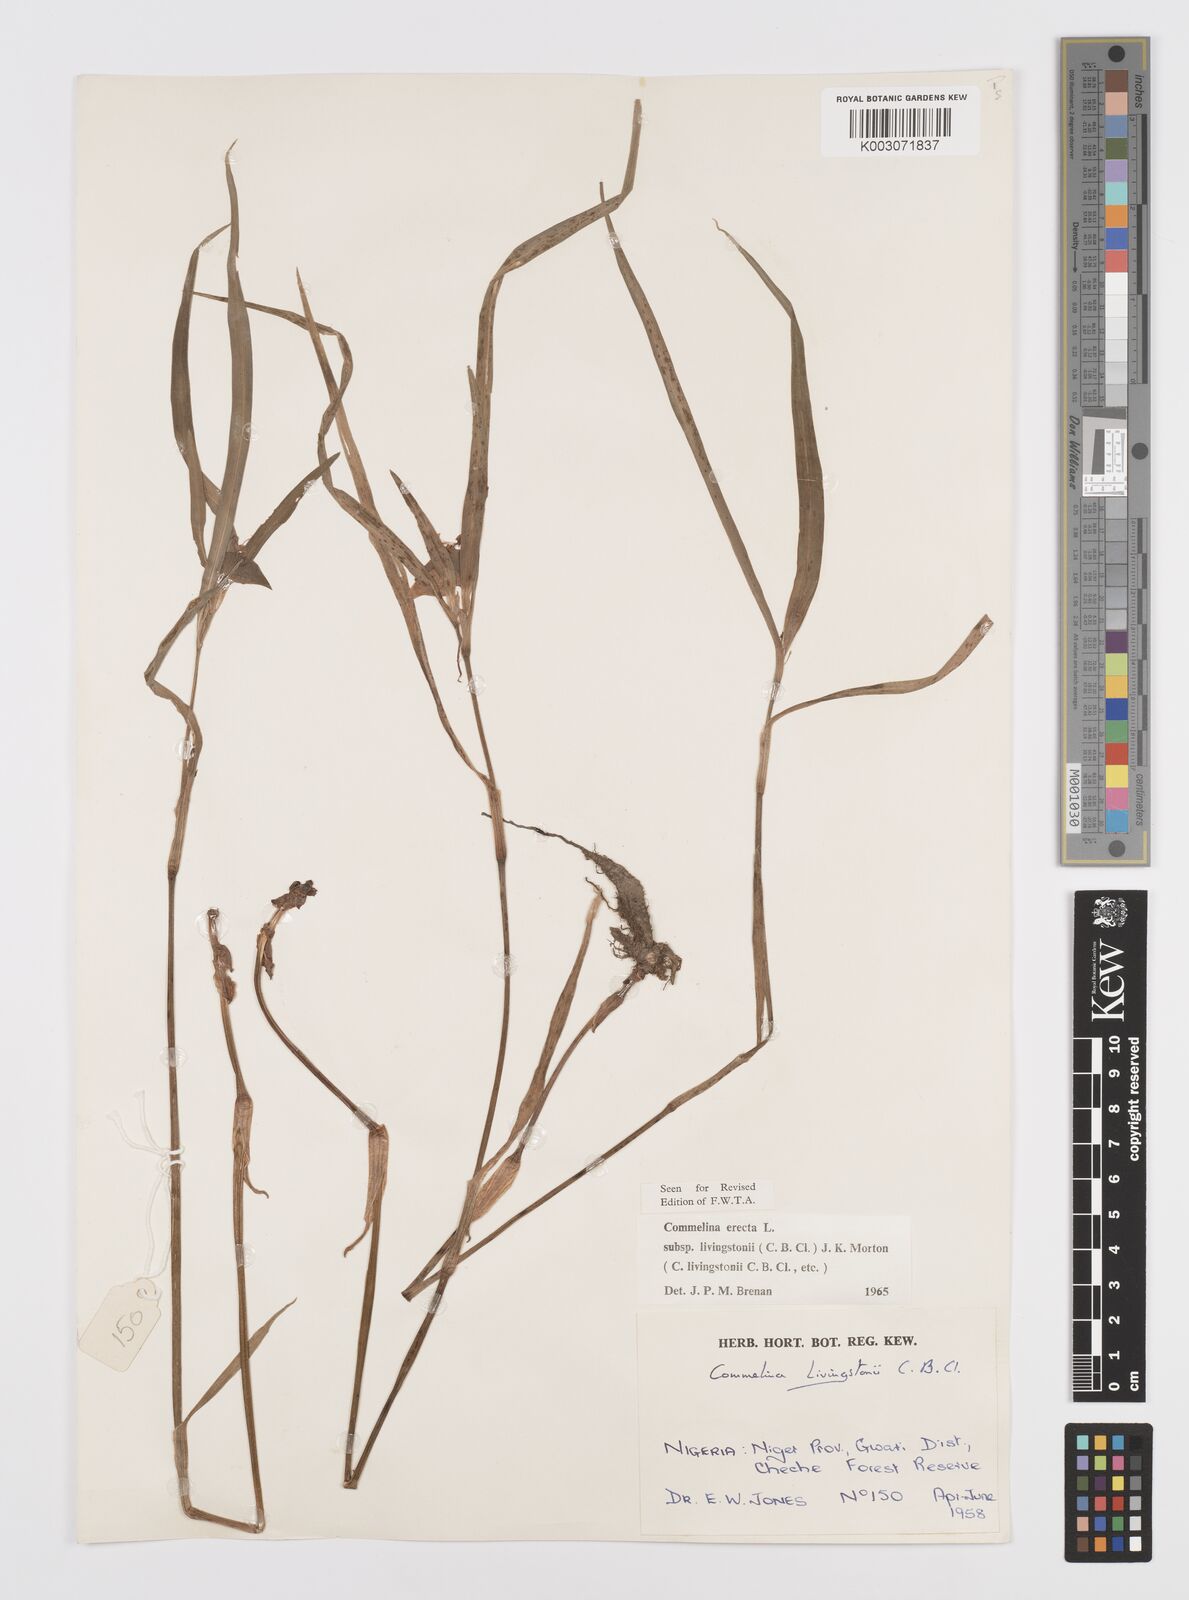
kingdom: Plantae
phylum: Tracheophyta
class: Liliopsida
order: Commelinales
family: Commelinaceae
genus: Commelina
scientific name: Commelina erecta
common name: Blousel blommetjie
